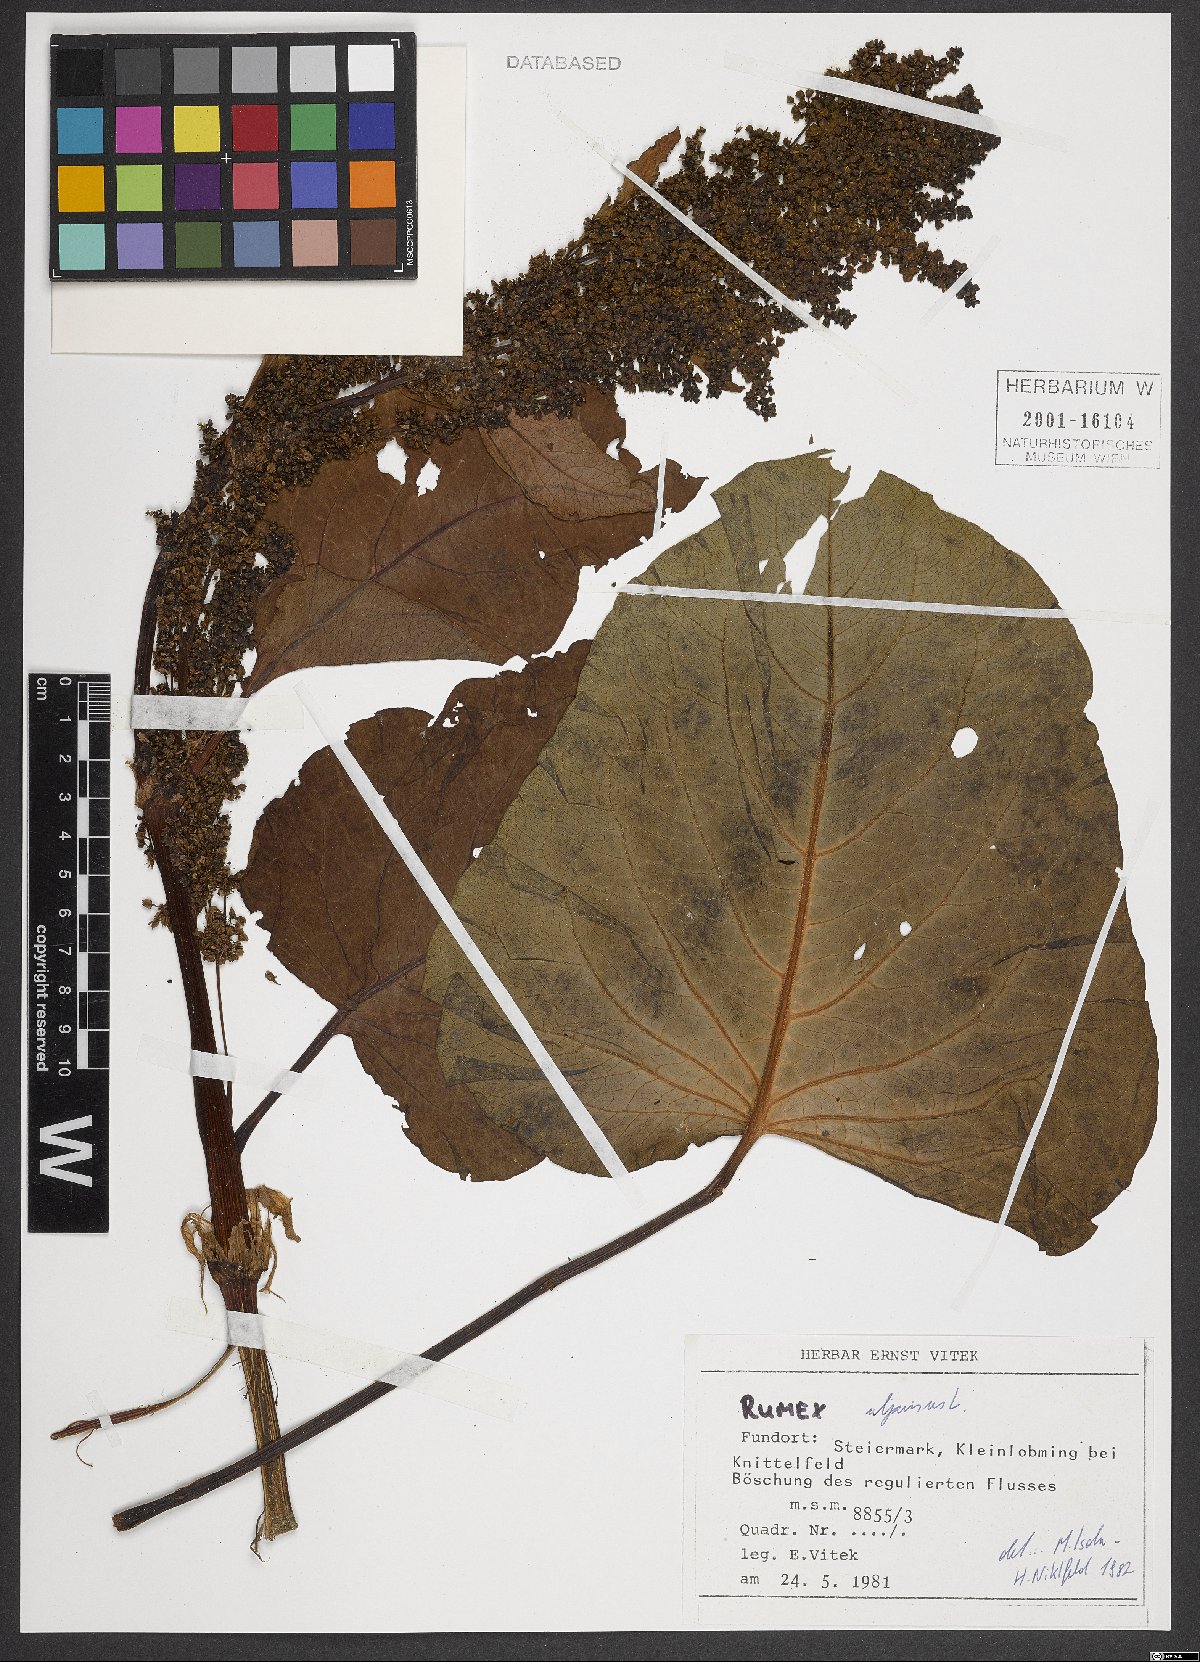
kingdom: Plantae
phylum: Tracheophyta
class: Magnoliopsida
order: Caryophyllales
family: Polygonaceae
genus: Rumex
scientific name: Rumex alpinus
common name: Alpine dock
